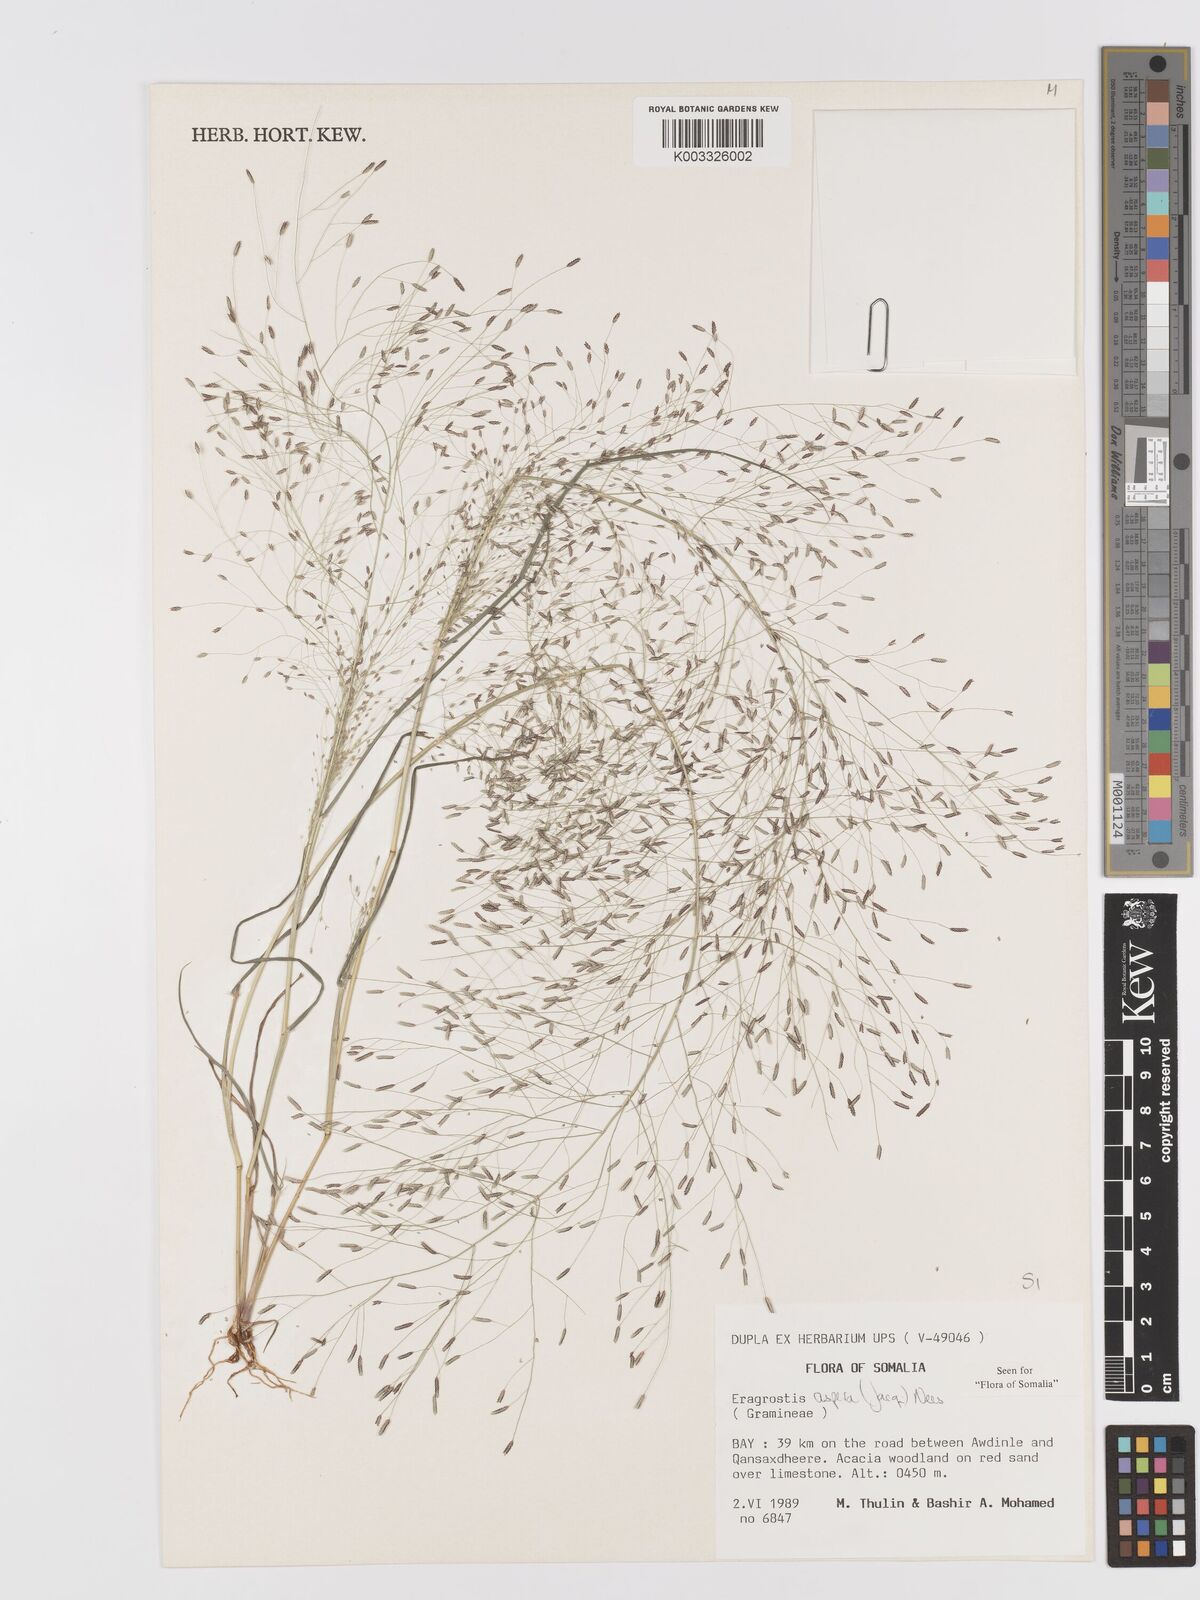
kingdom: Plantae
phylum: Tracheophyta
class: Liliopsida
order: Poales
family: Poaceae
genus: Eragrostis
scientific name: Eragrostis aspera
